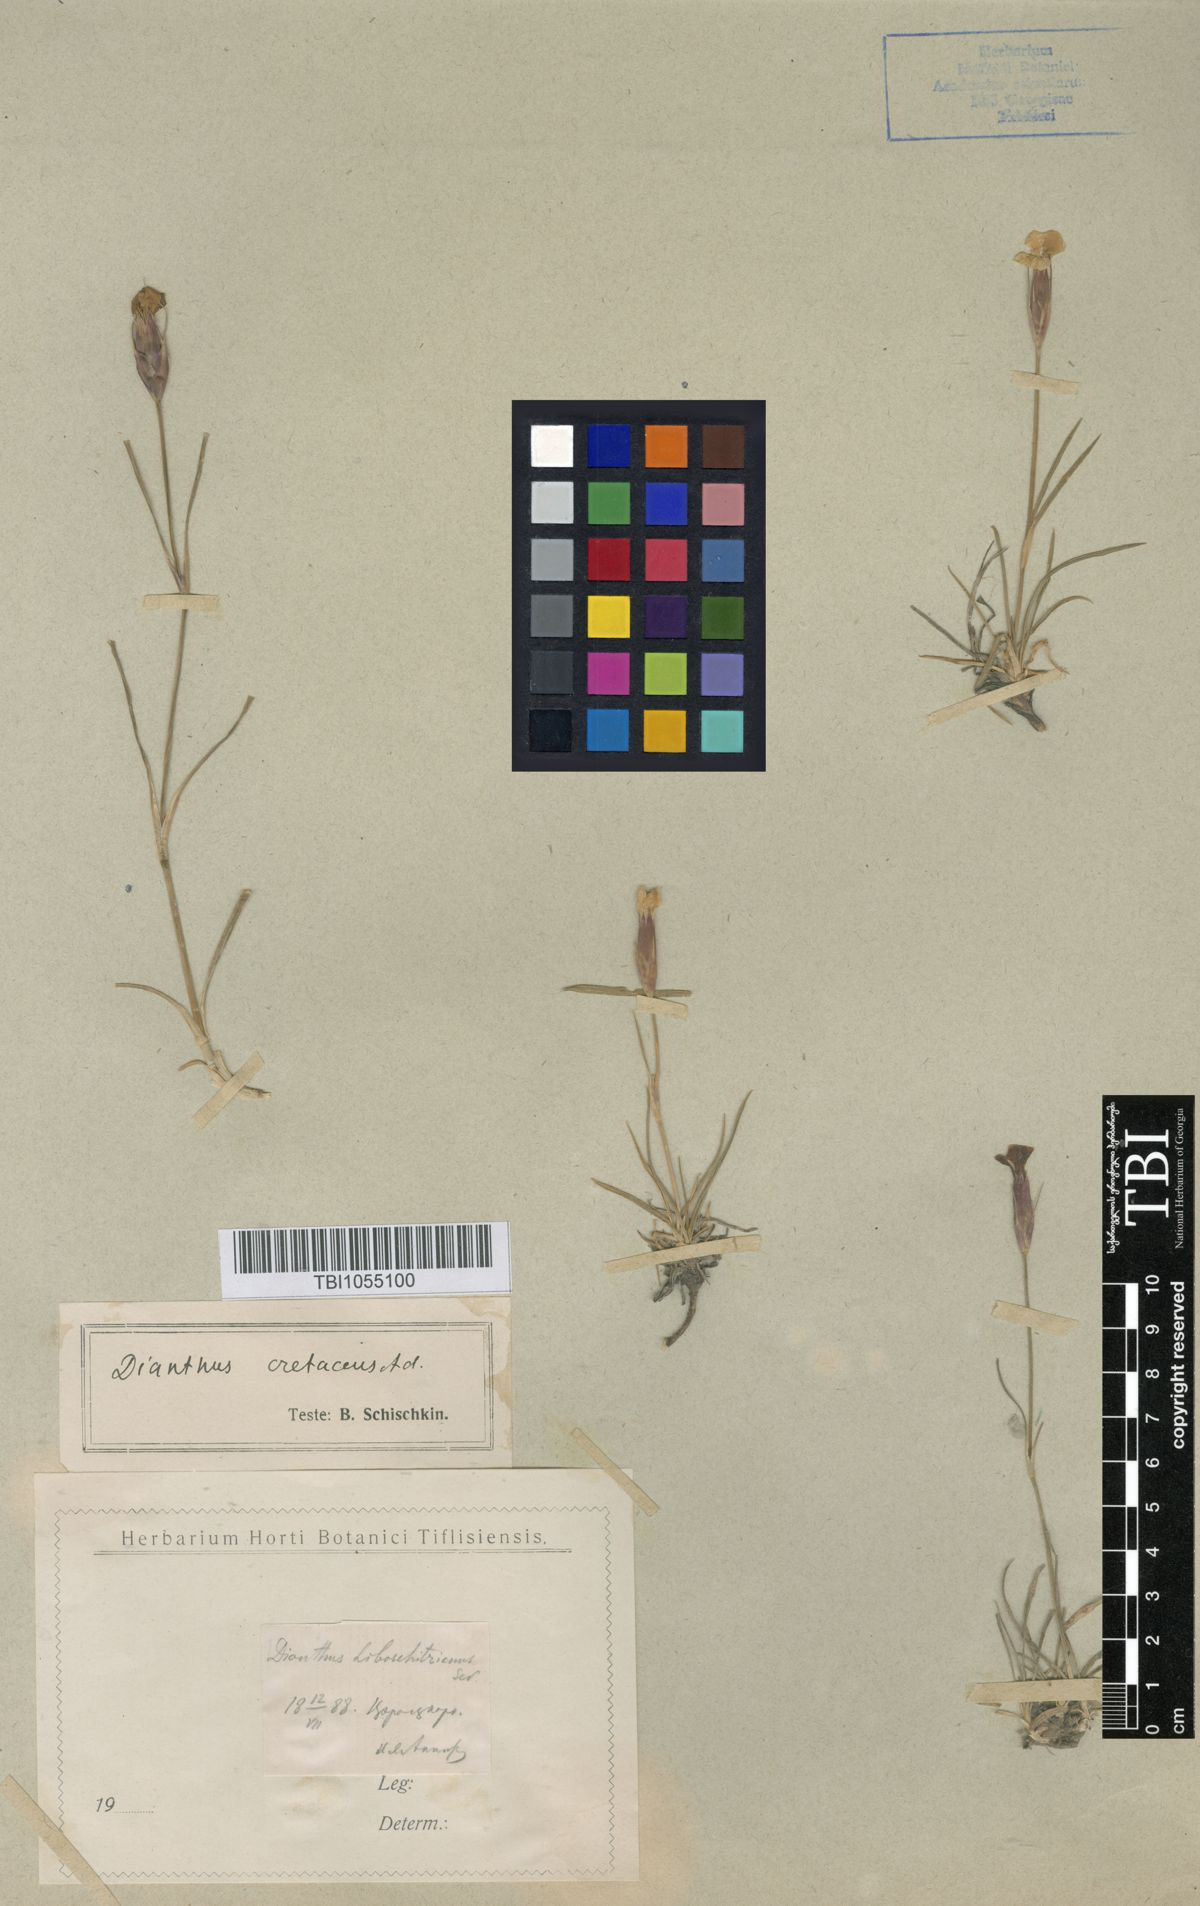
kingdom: Plantae
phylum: Tracheophyta
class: Magnoliopsida
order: Caryophyllales
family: Caryophyllaceae
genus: Dianthus
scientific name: Dianthus cretaceus
